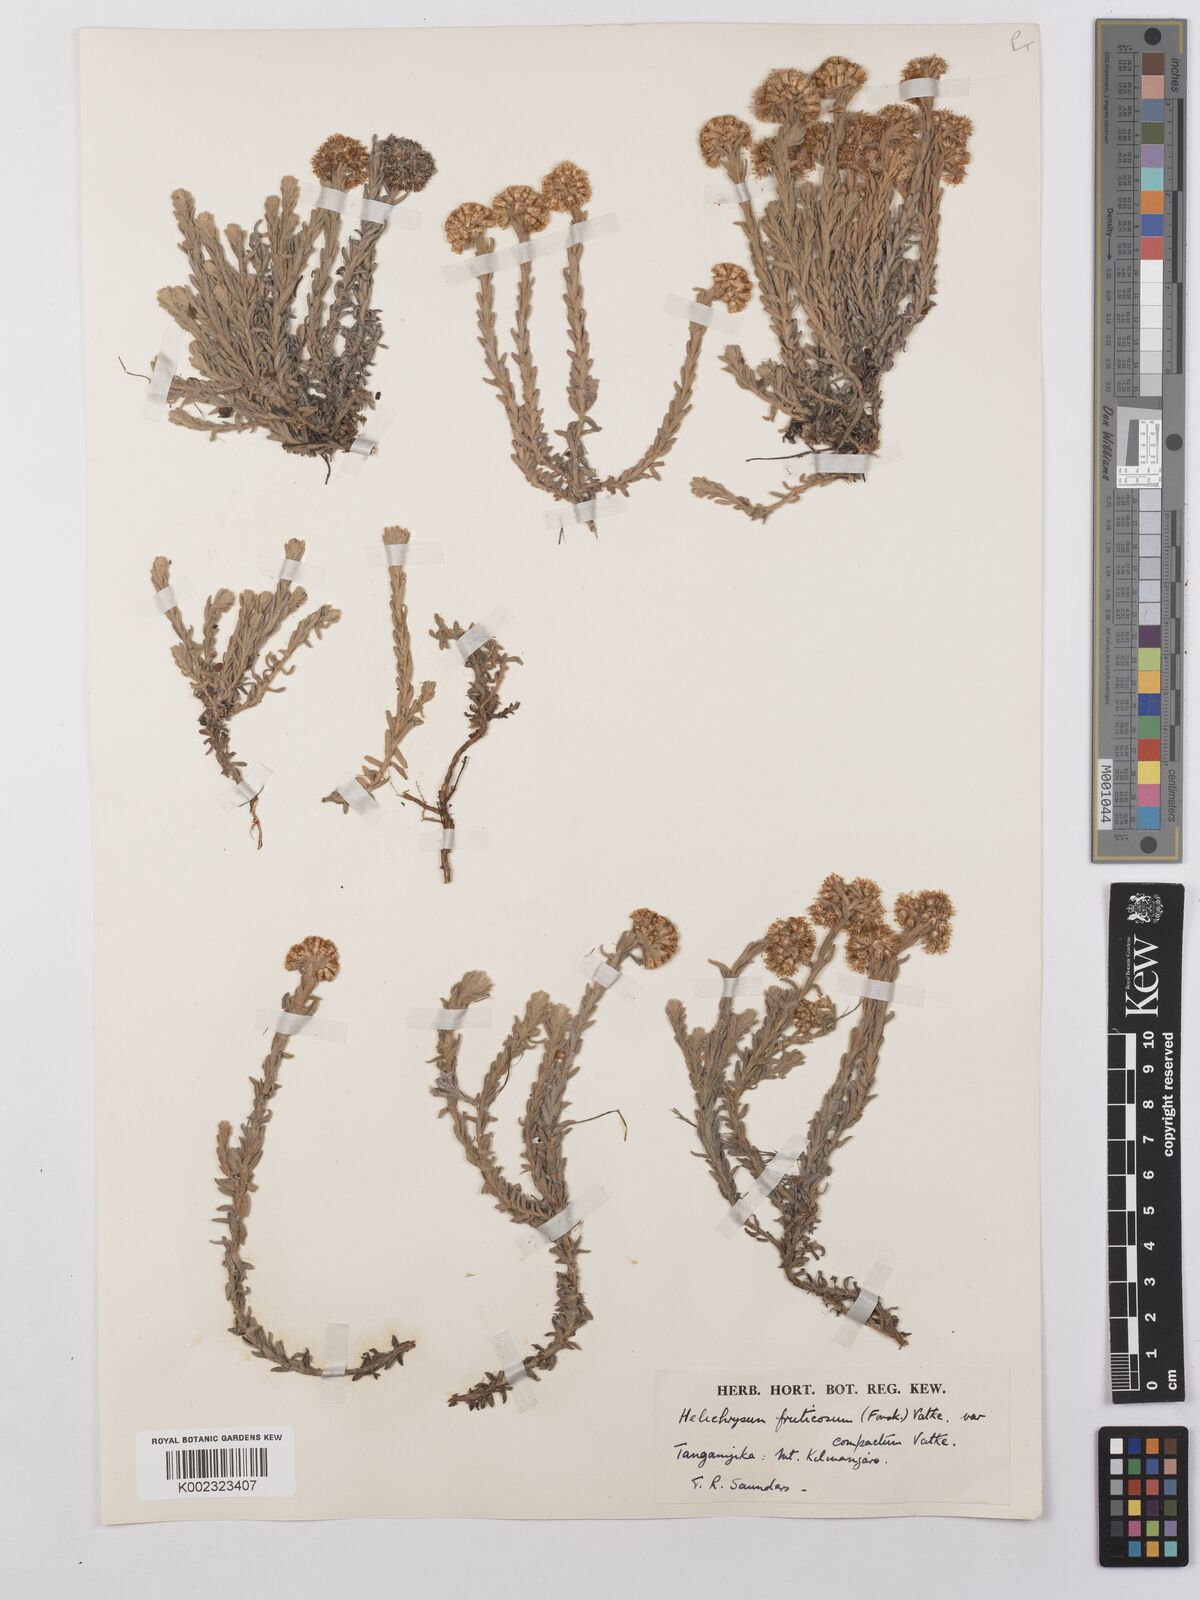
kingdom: Plantae
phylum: Tracheophyta
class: Magnoliopsida
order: Asterales
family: Asteraceae
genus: Helichrysum
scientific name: Helichrysum forskahlii
